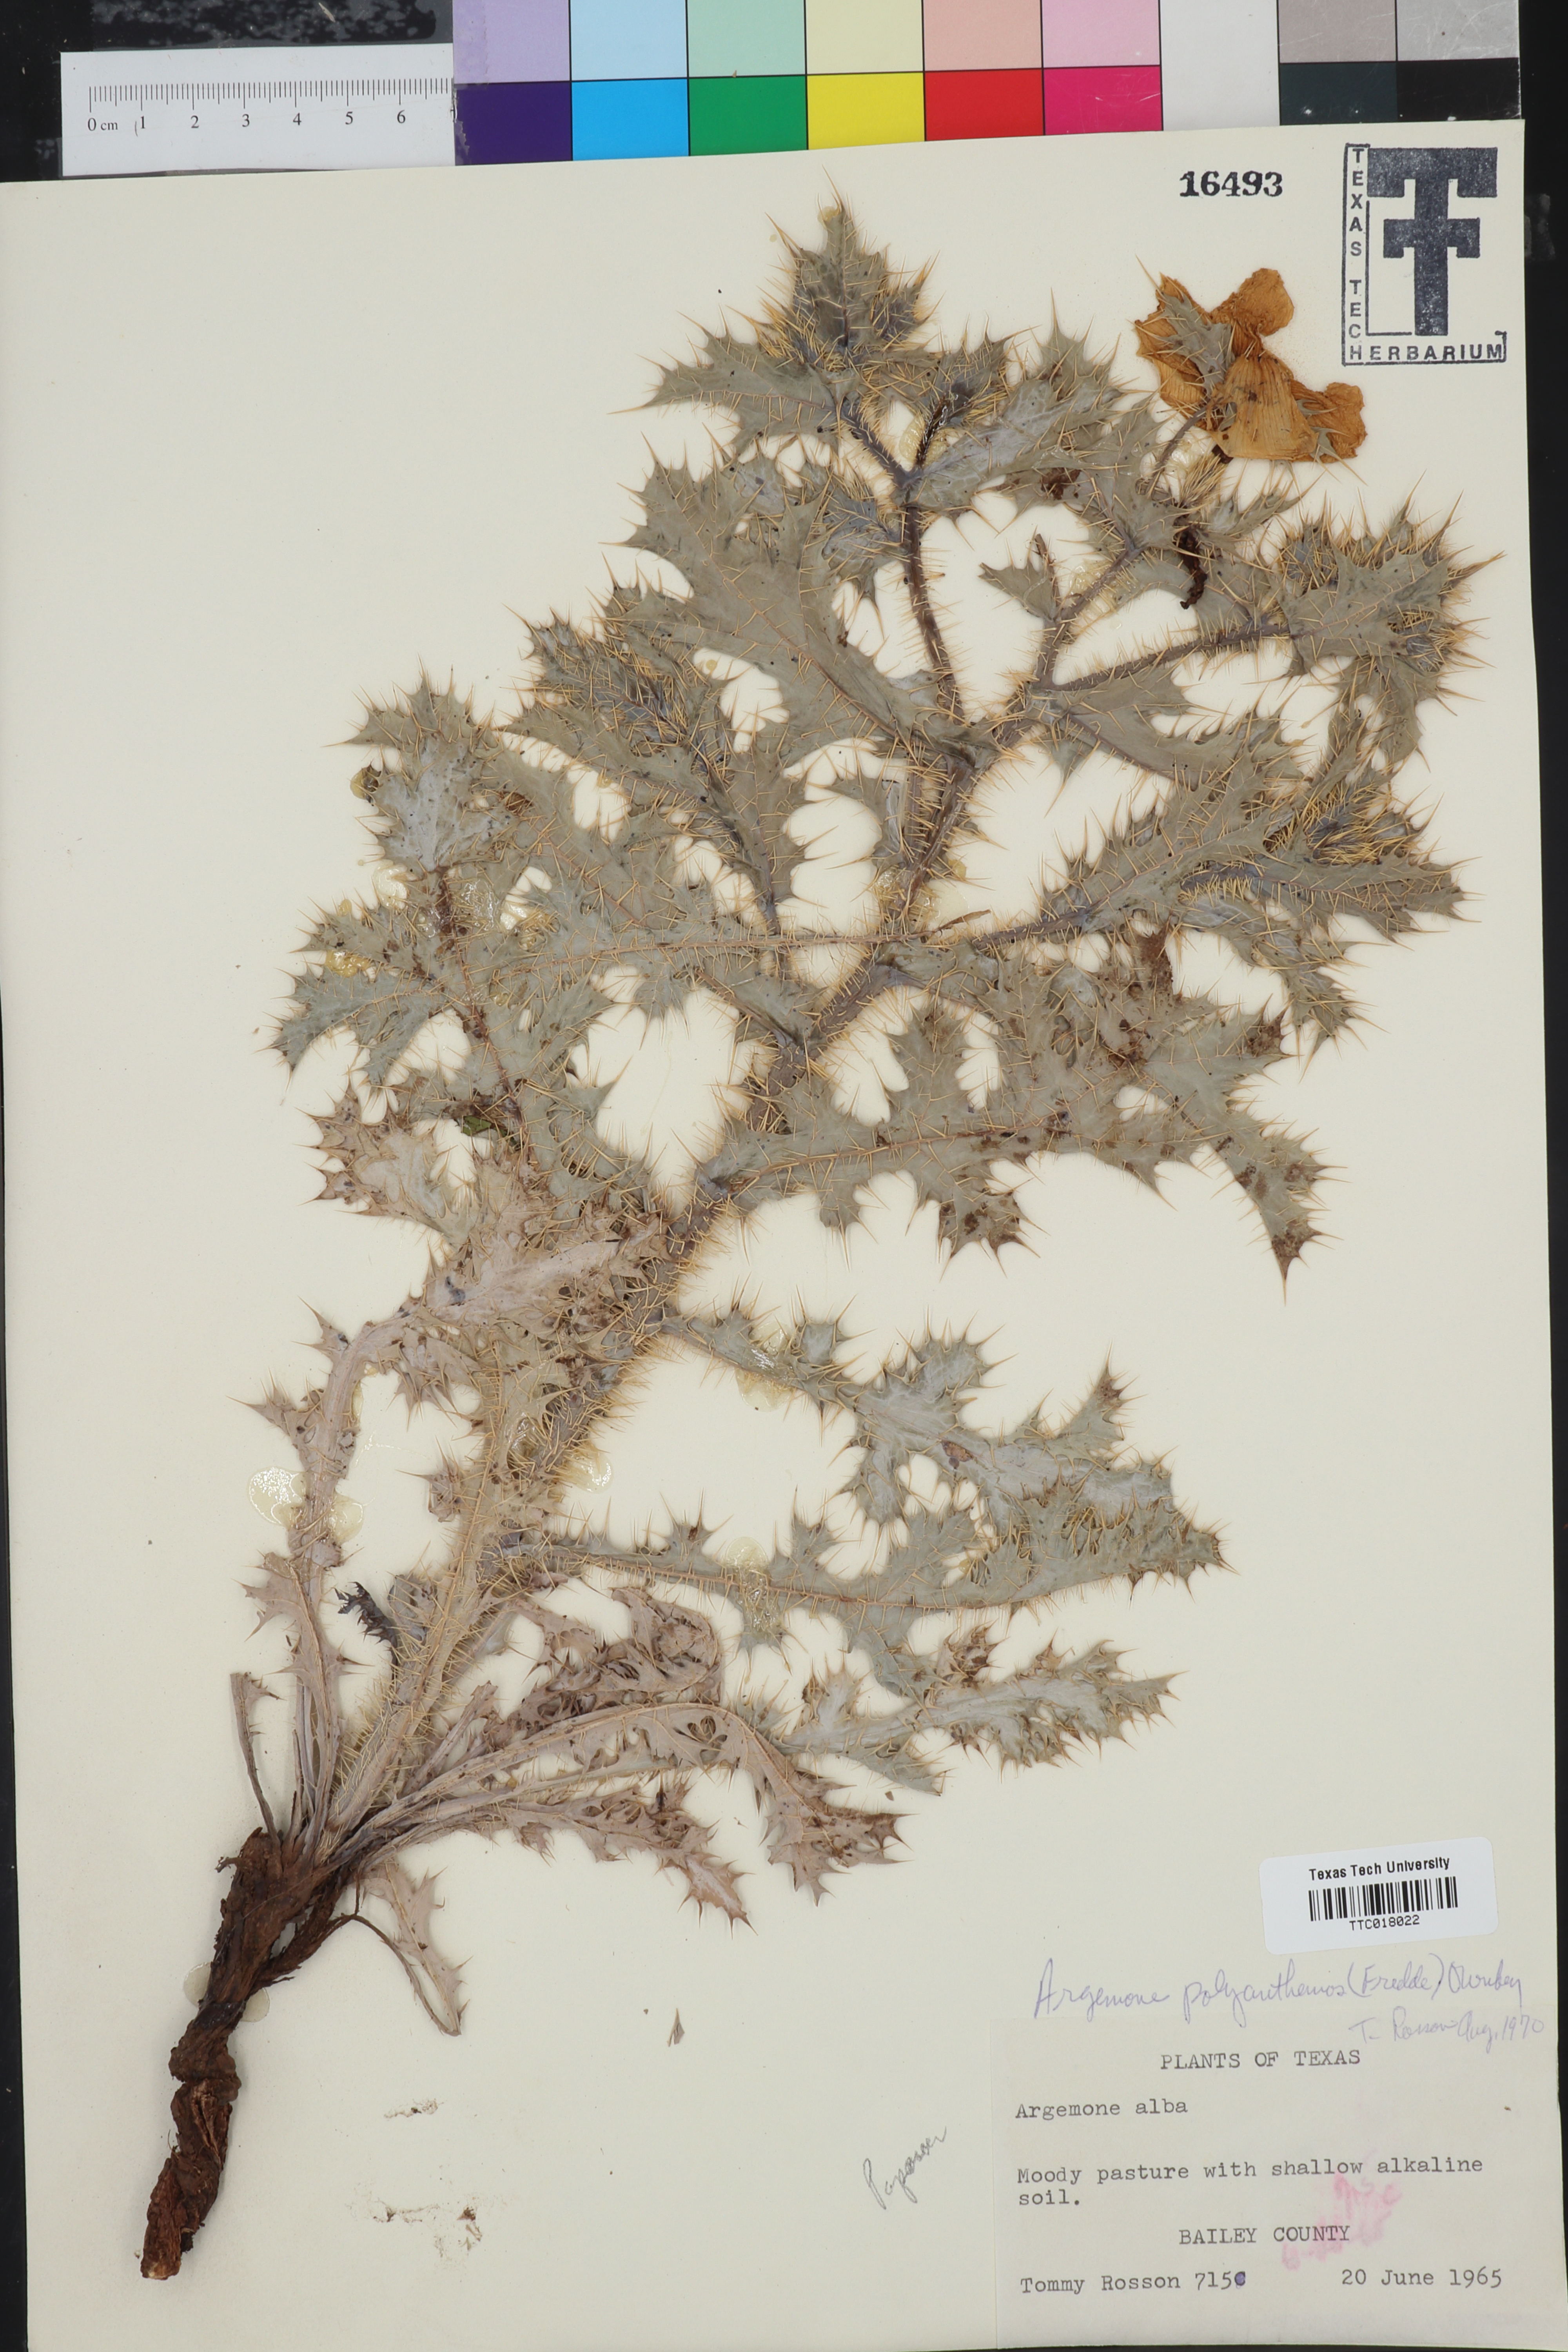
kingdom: Plantae
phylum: Tracheophyta
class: Magnoliopsida
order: Ranunculales
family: Papaveraceae
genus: Argemone
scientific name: Argemone polyanthemos
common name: Plains prickly-poppy
